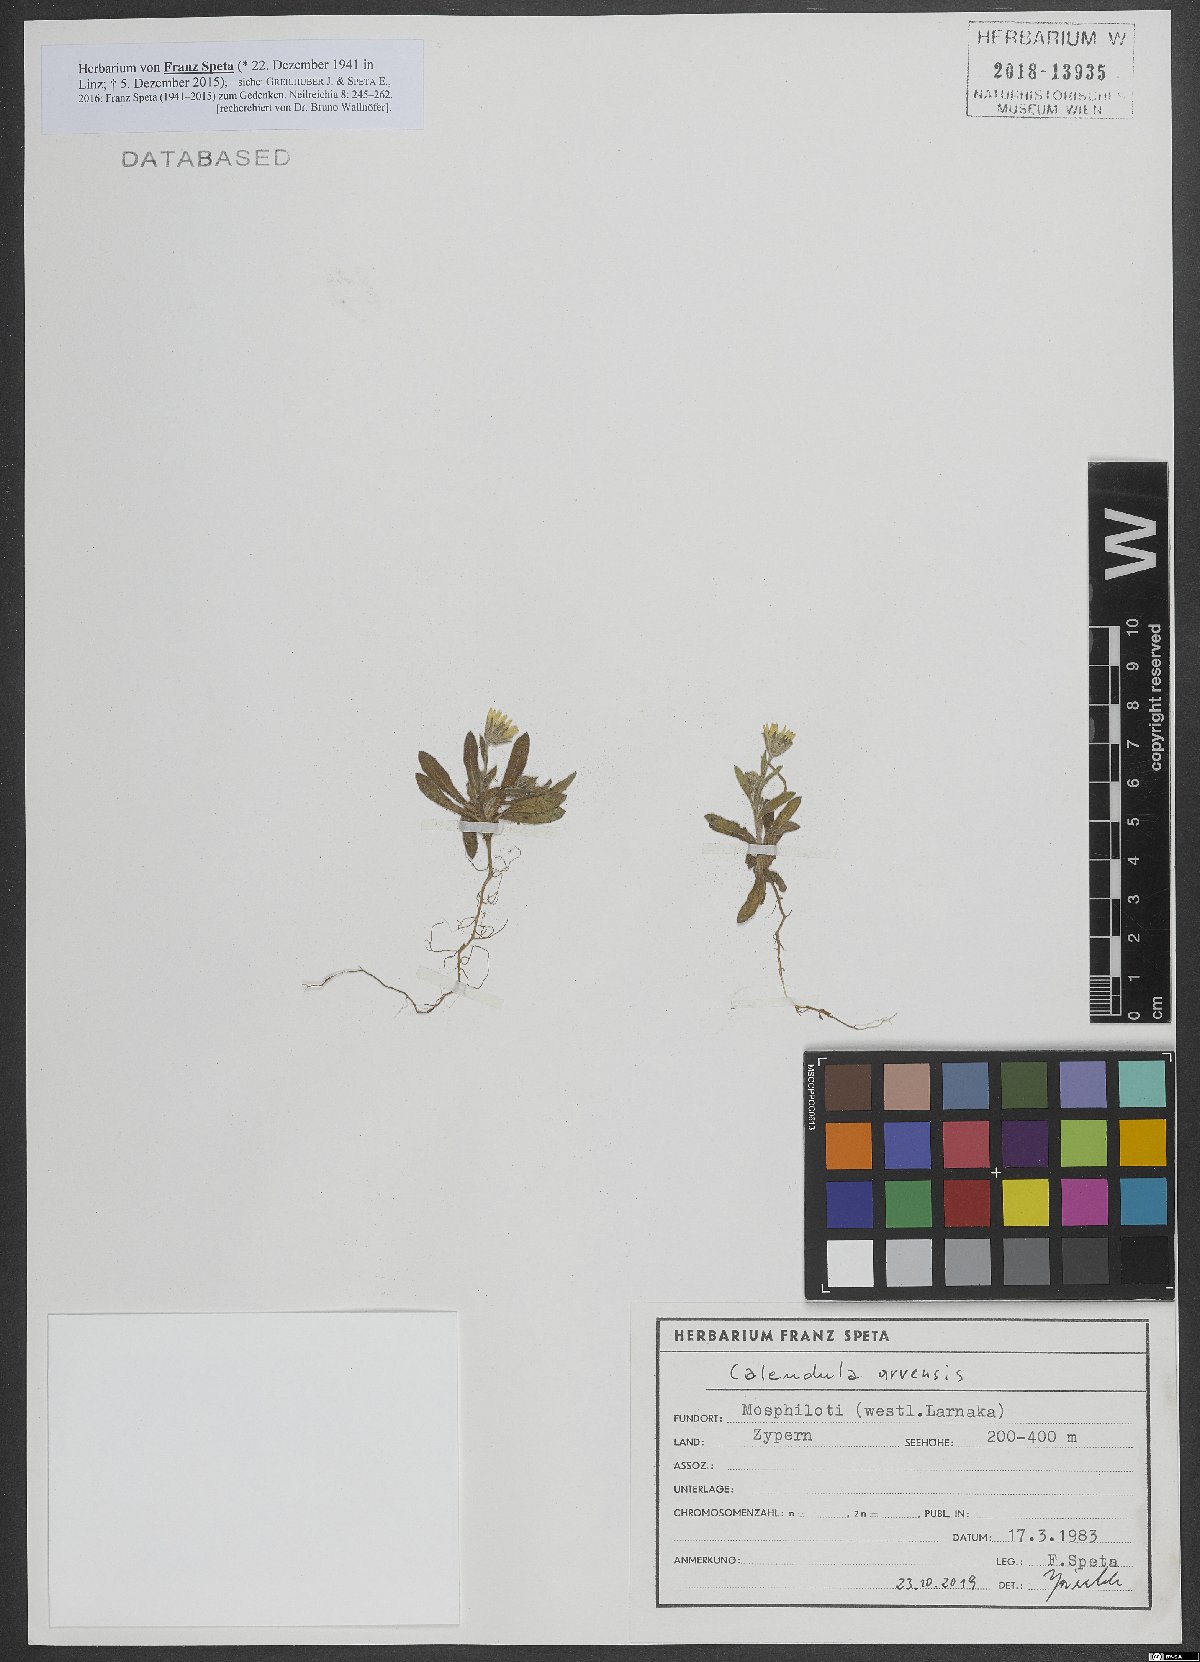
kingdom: Plantae
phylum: Tracheophyta
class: Magnoliopsida
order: Asterales
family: Asteraceae
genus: Calendula
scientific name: Calendula arvensis
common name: Field marigold
